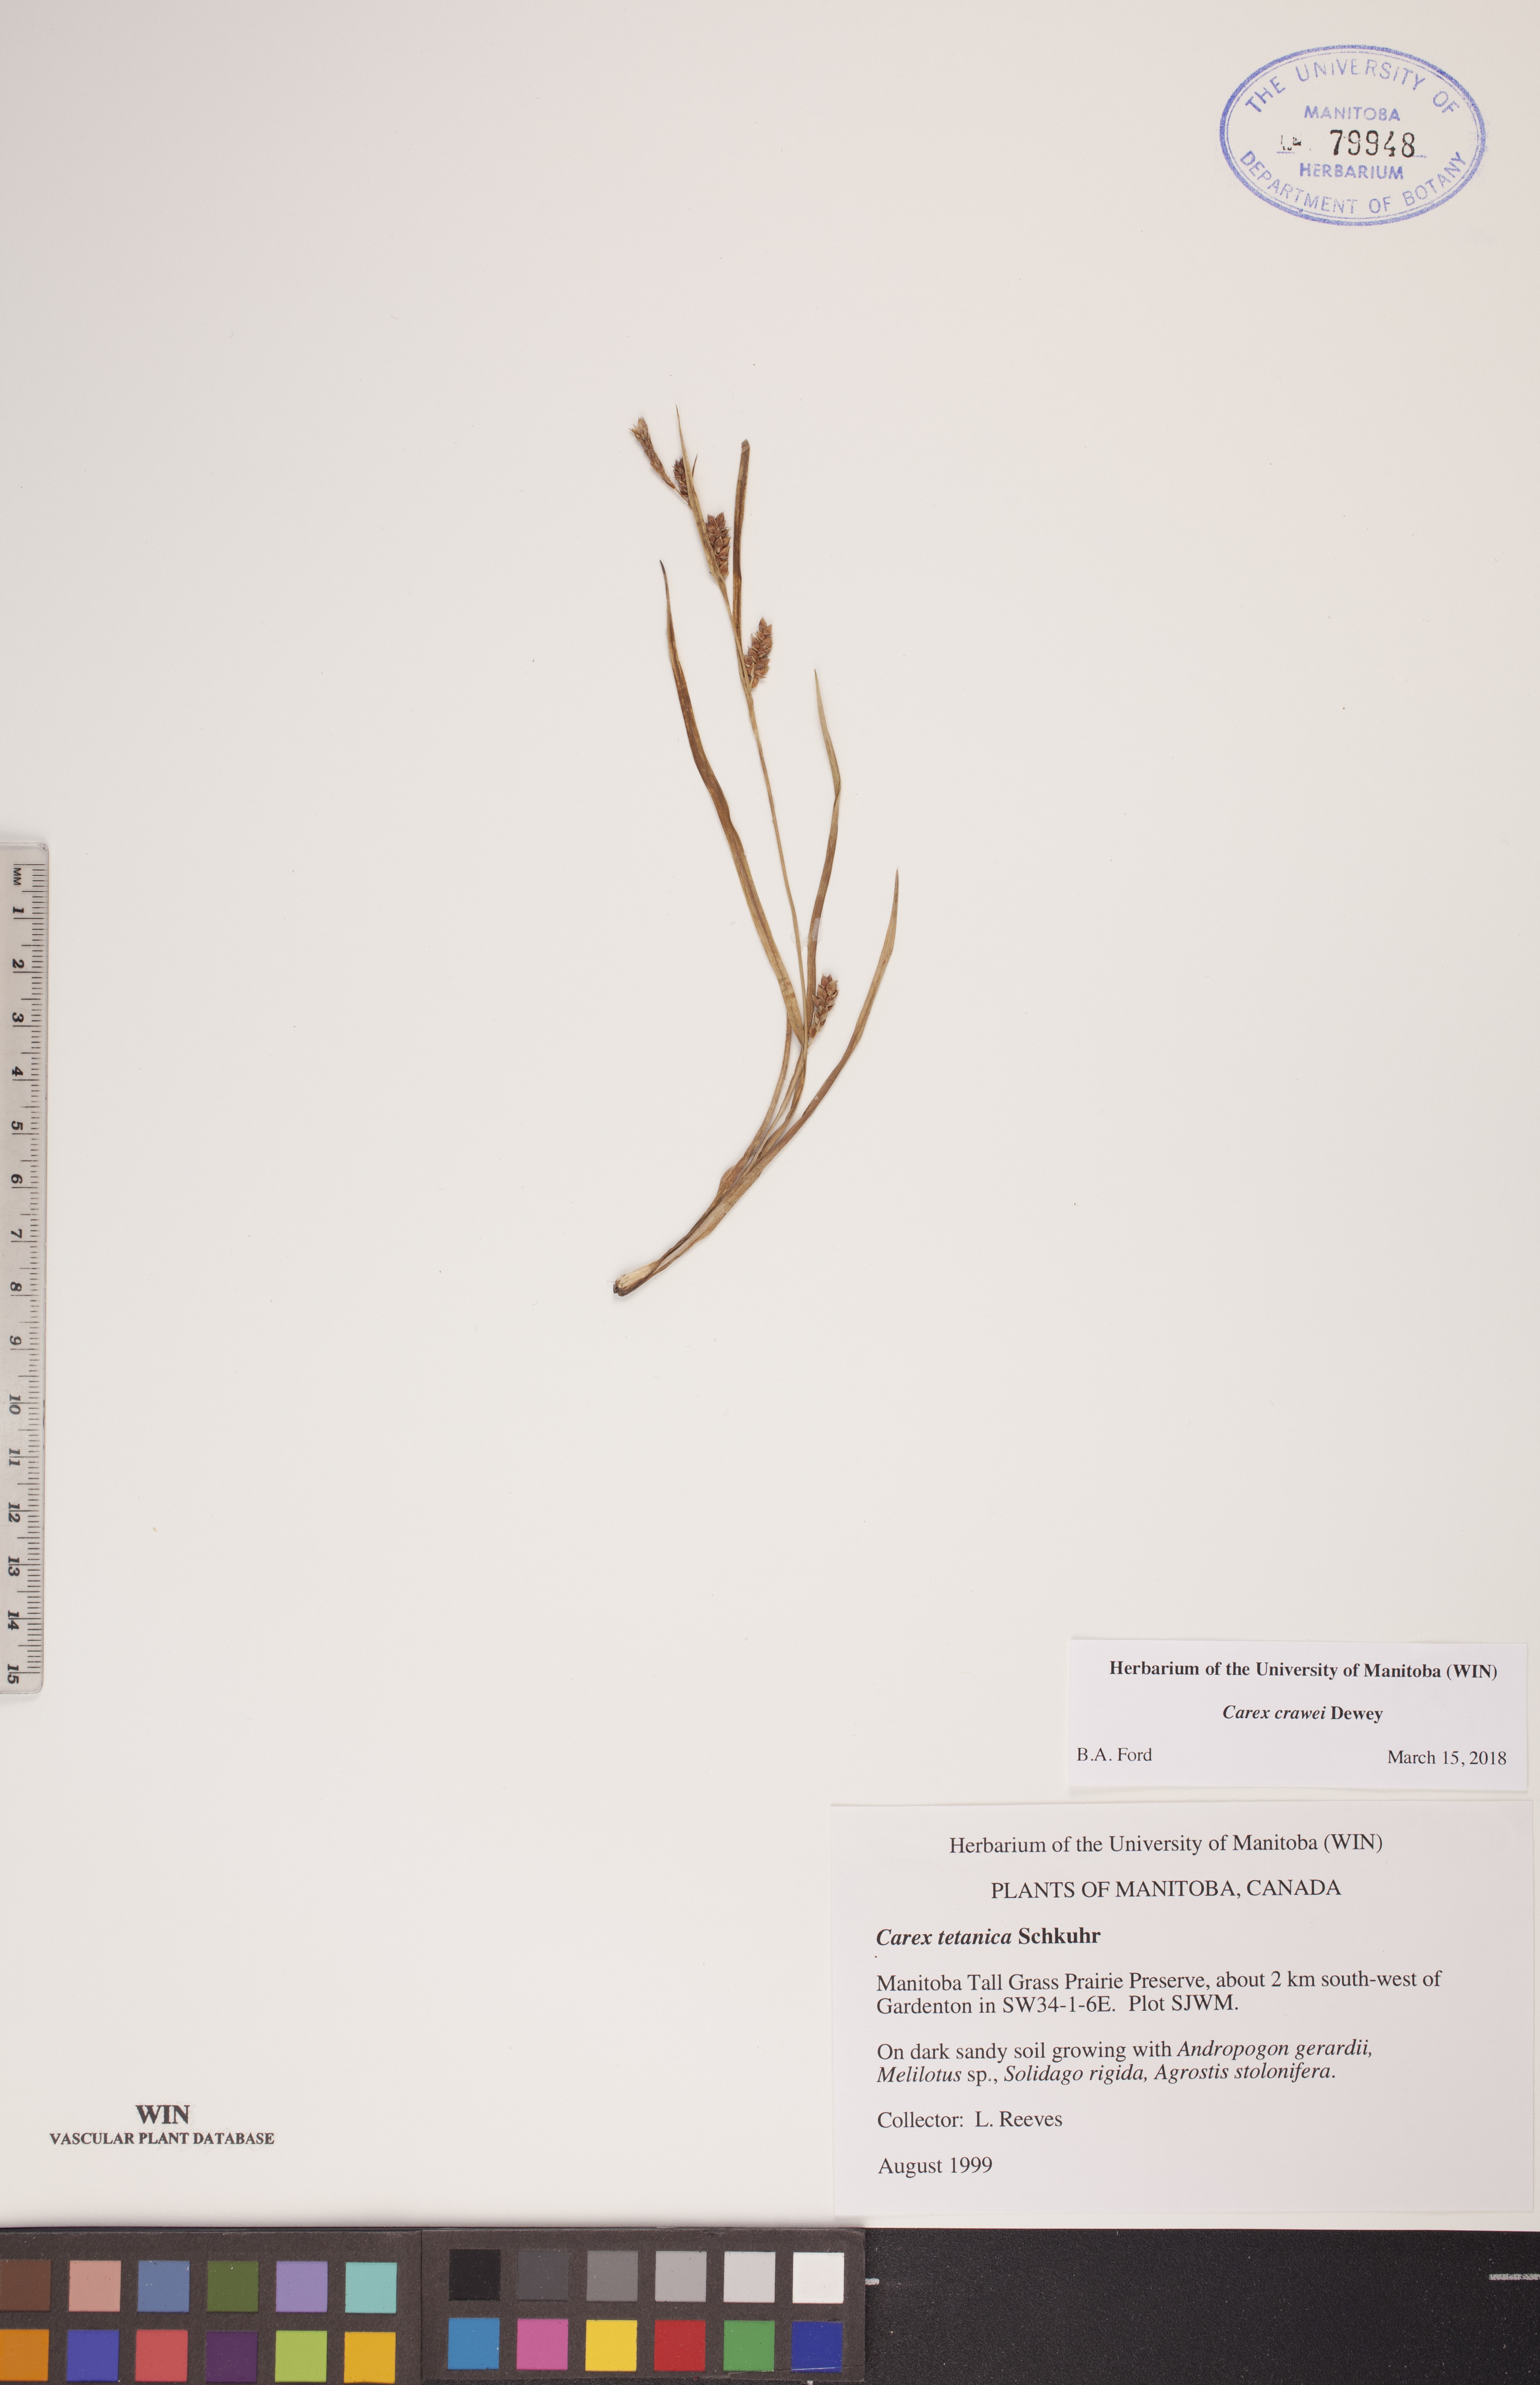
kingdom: Plantae
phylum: Tracheophyta
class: Liliopsida
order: Poales
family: Cyperaceae
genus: Carex
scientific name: Carex crawei
